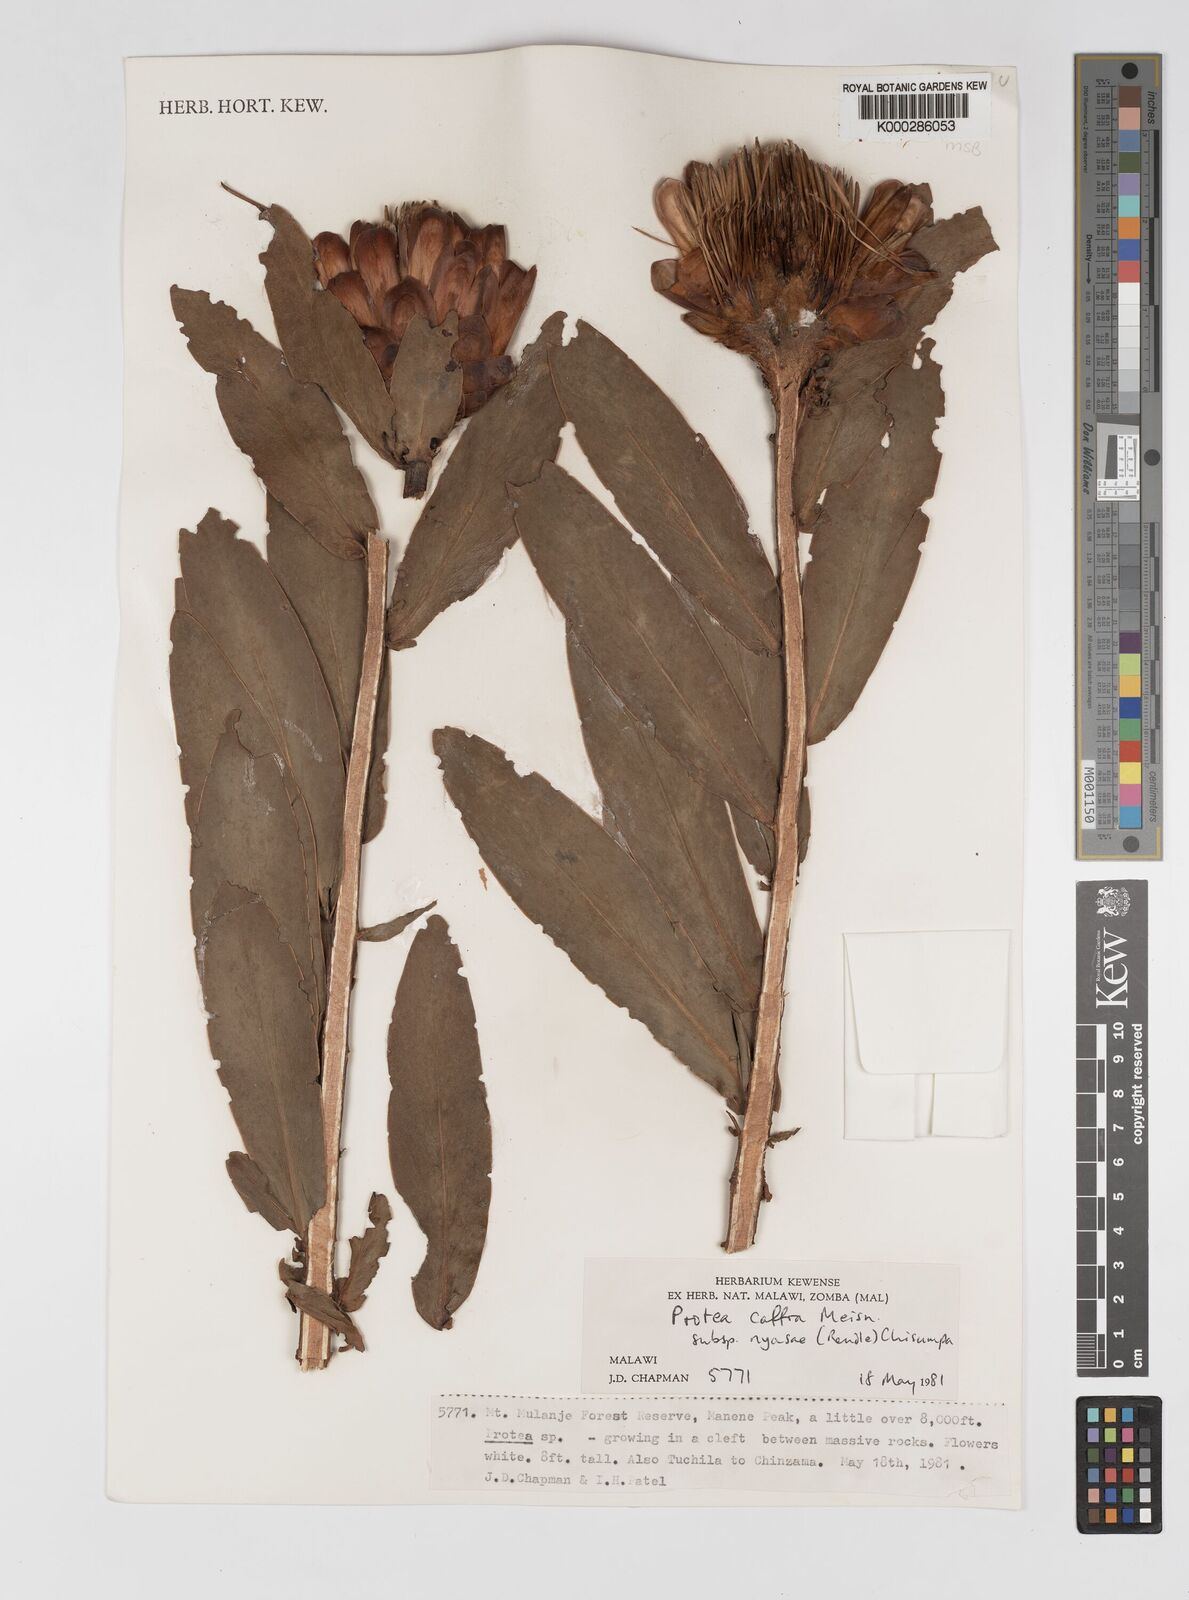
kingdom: Plantae
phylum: Tracheophyta
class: Magnoliopsida
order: Proteales
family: Proteaceae
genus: Protea
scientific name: Protea caffra
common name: Common sugarbush
